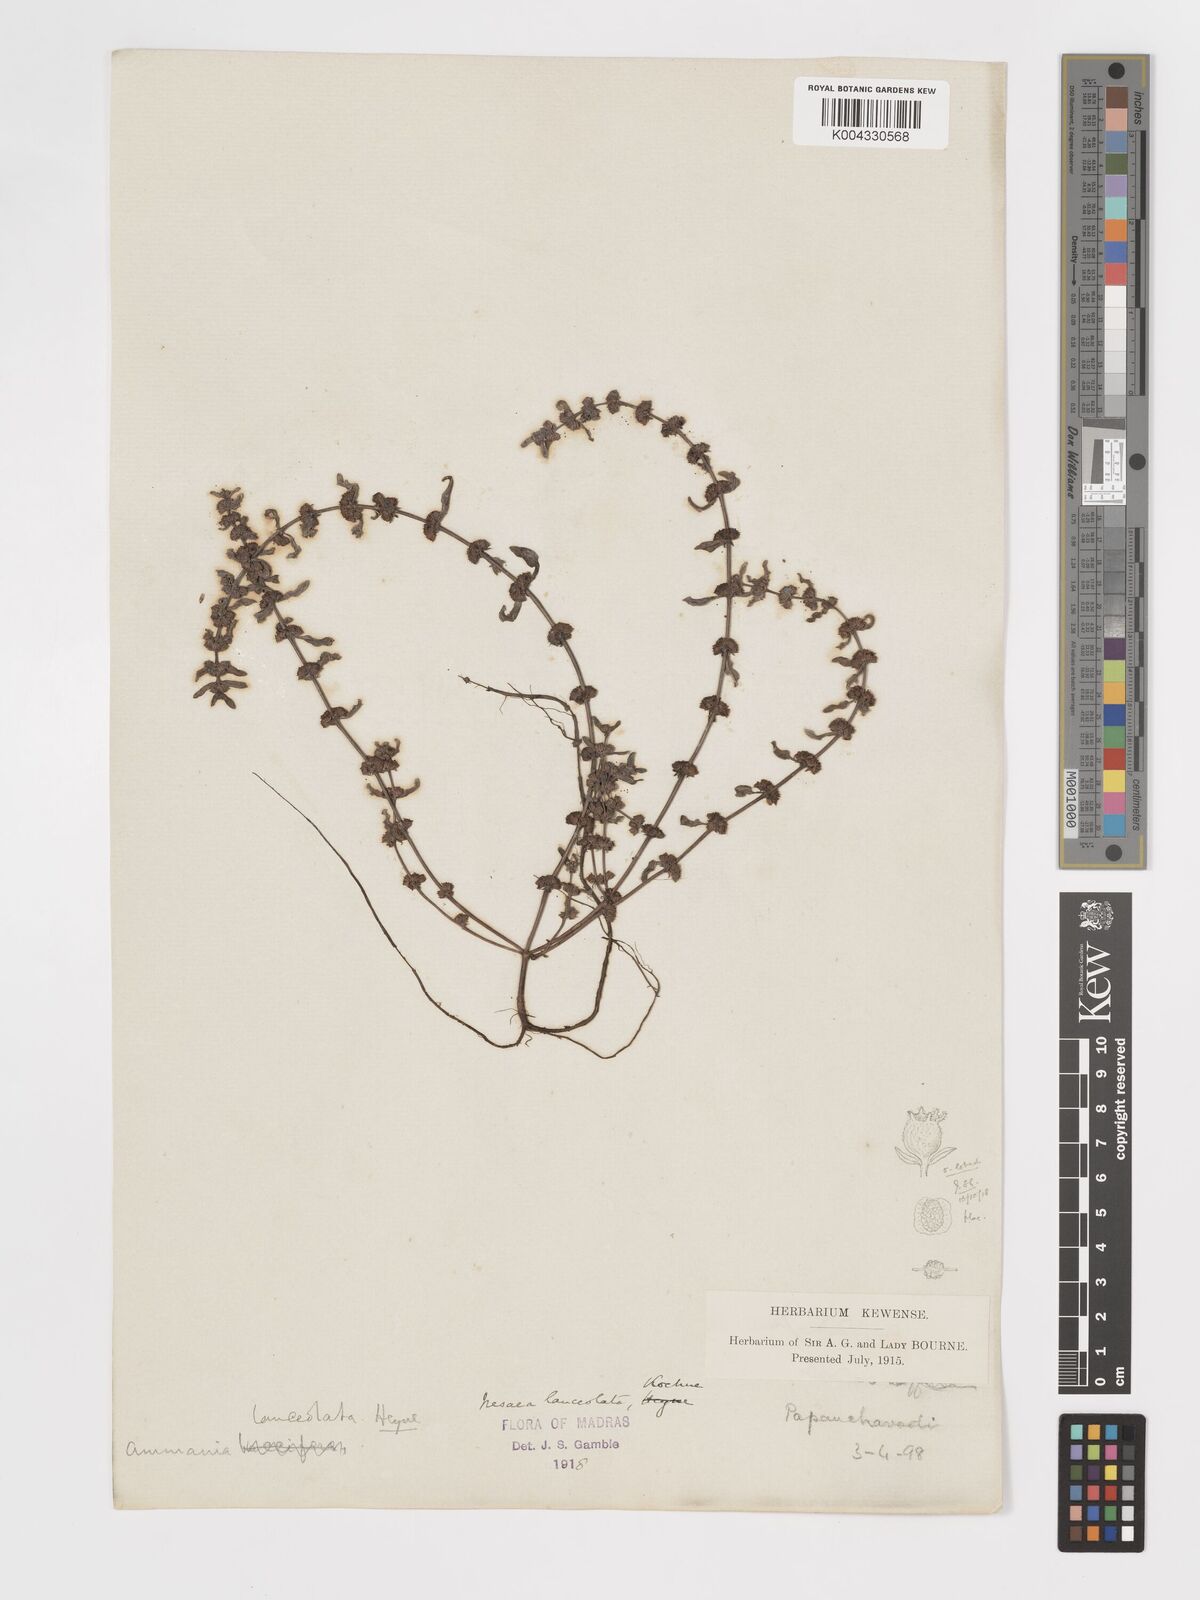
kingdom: Plantae
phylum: Tracheophyta
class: Magnoliopsida
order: Myrtales
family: Lythraceae
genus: Ammannia
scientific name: Ammannia prostrata
